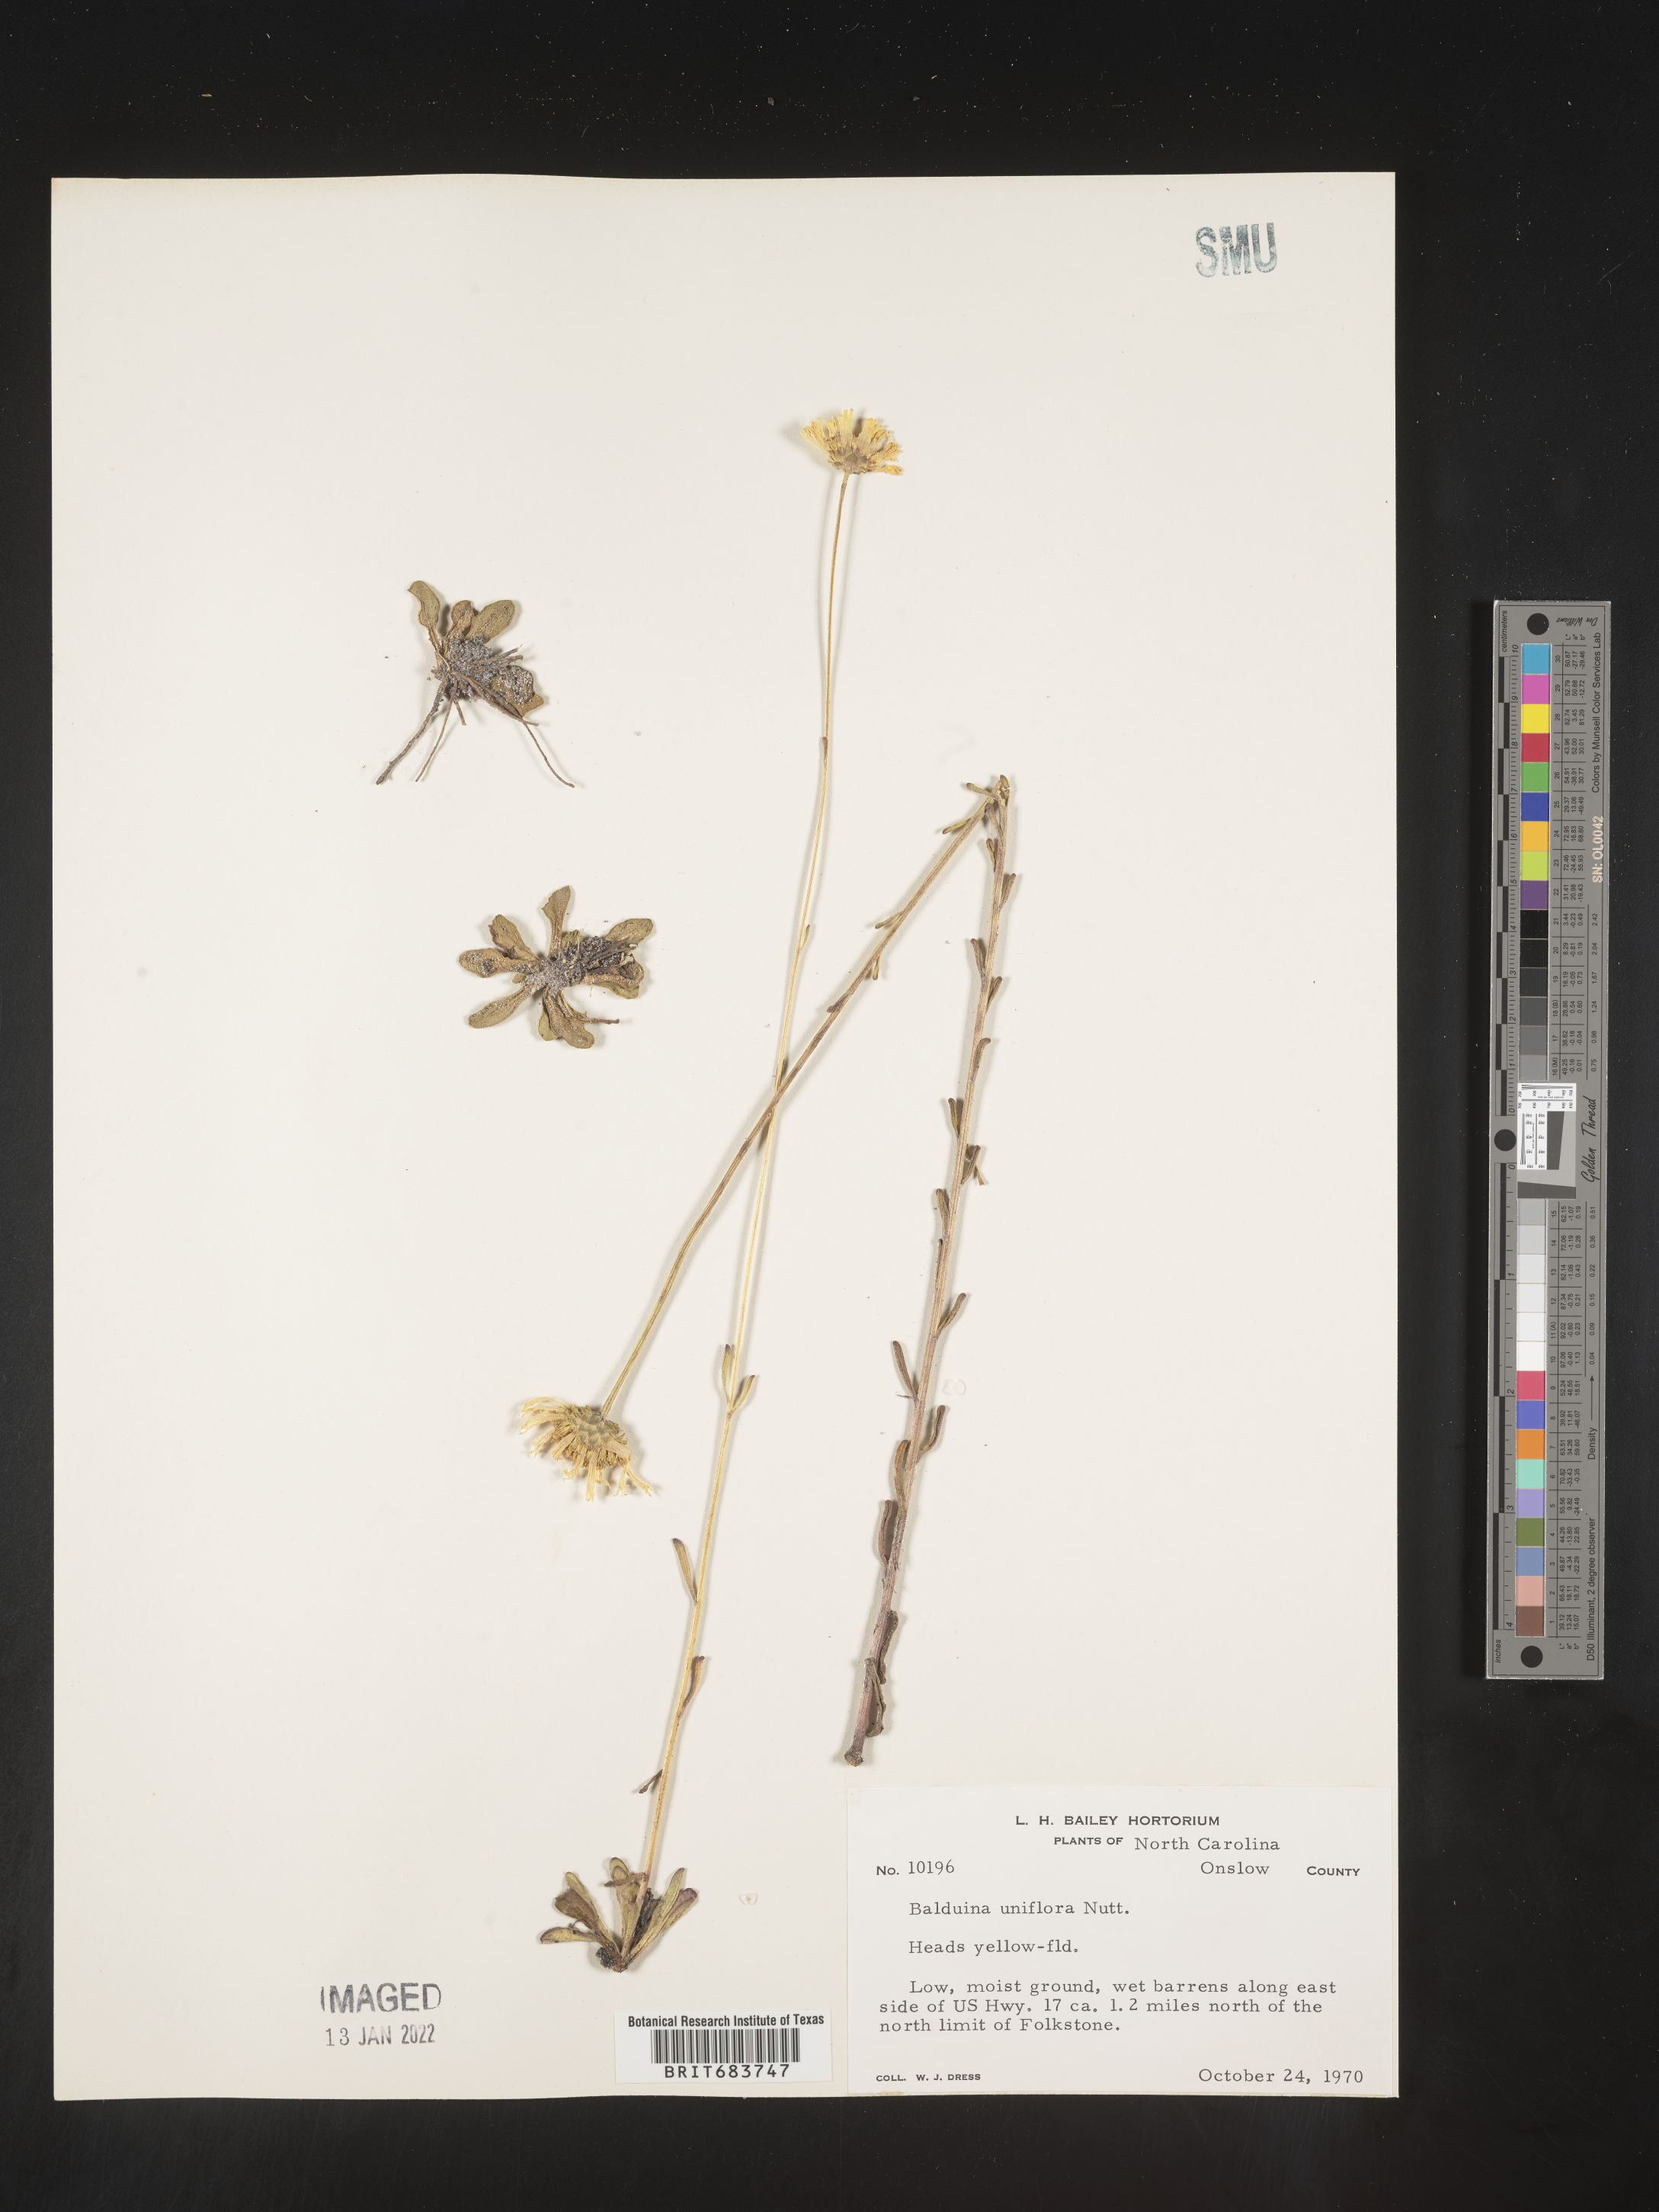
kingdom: Plantae
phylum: Tracheophyta
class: Magnoliopsida
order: Asterales
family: Asteraceae
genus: Balduina
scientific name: Balduina uniflora
